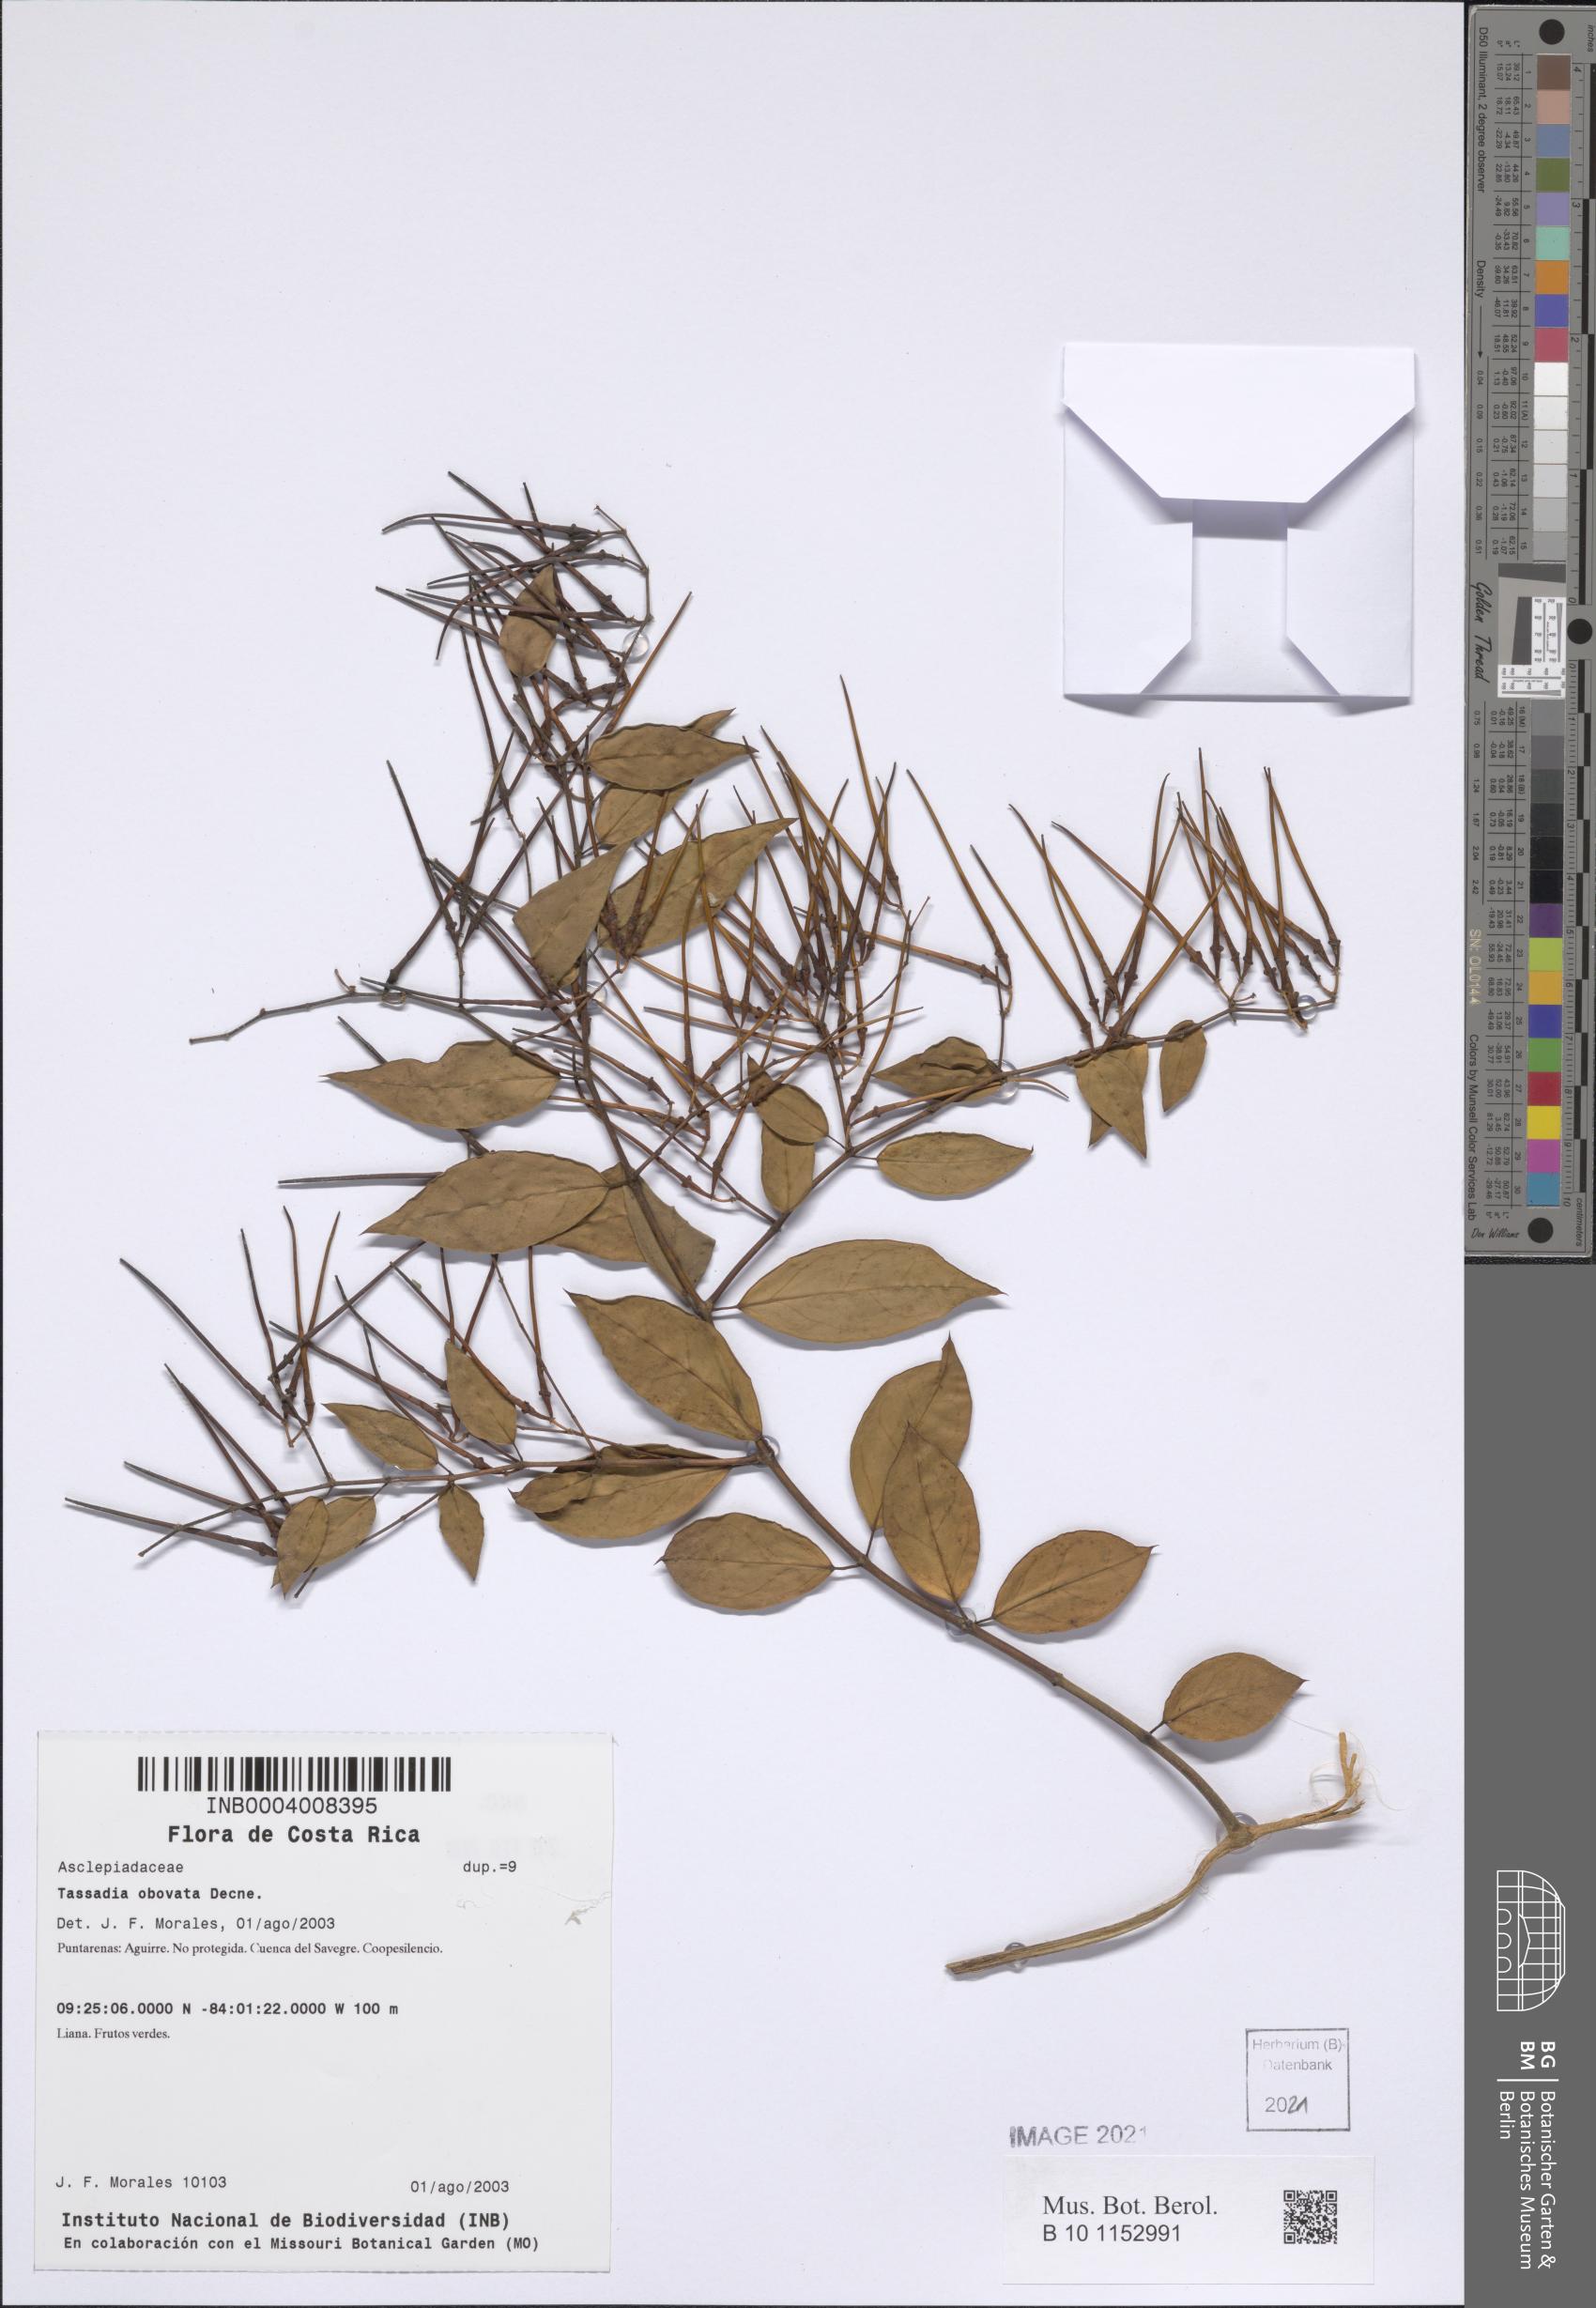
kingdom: Plantae
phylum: Tracheophyta
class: Magnoliopsida
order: Gentianales
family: Apocynaceae
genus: Tassadia
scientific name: Tassadia obovata
